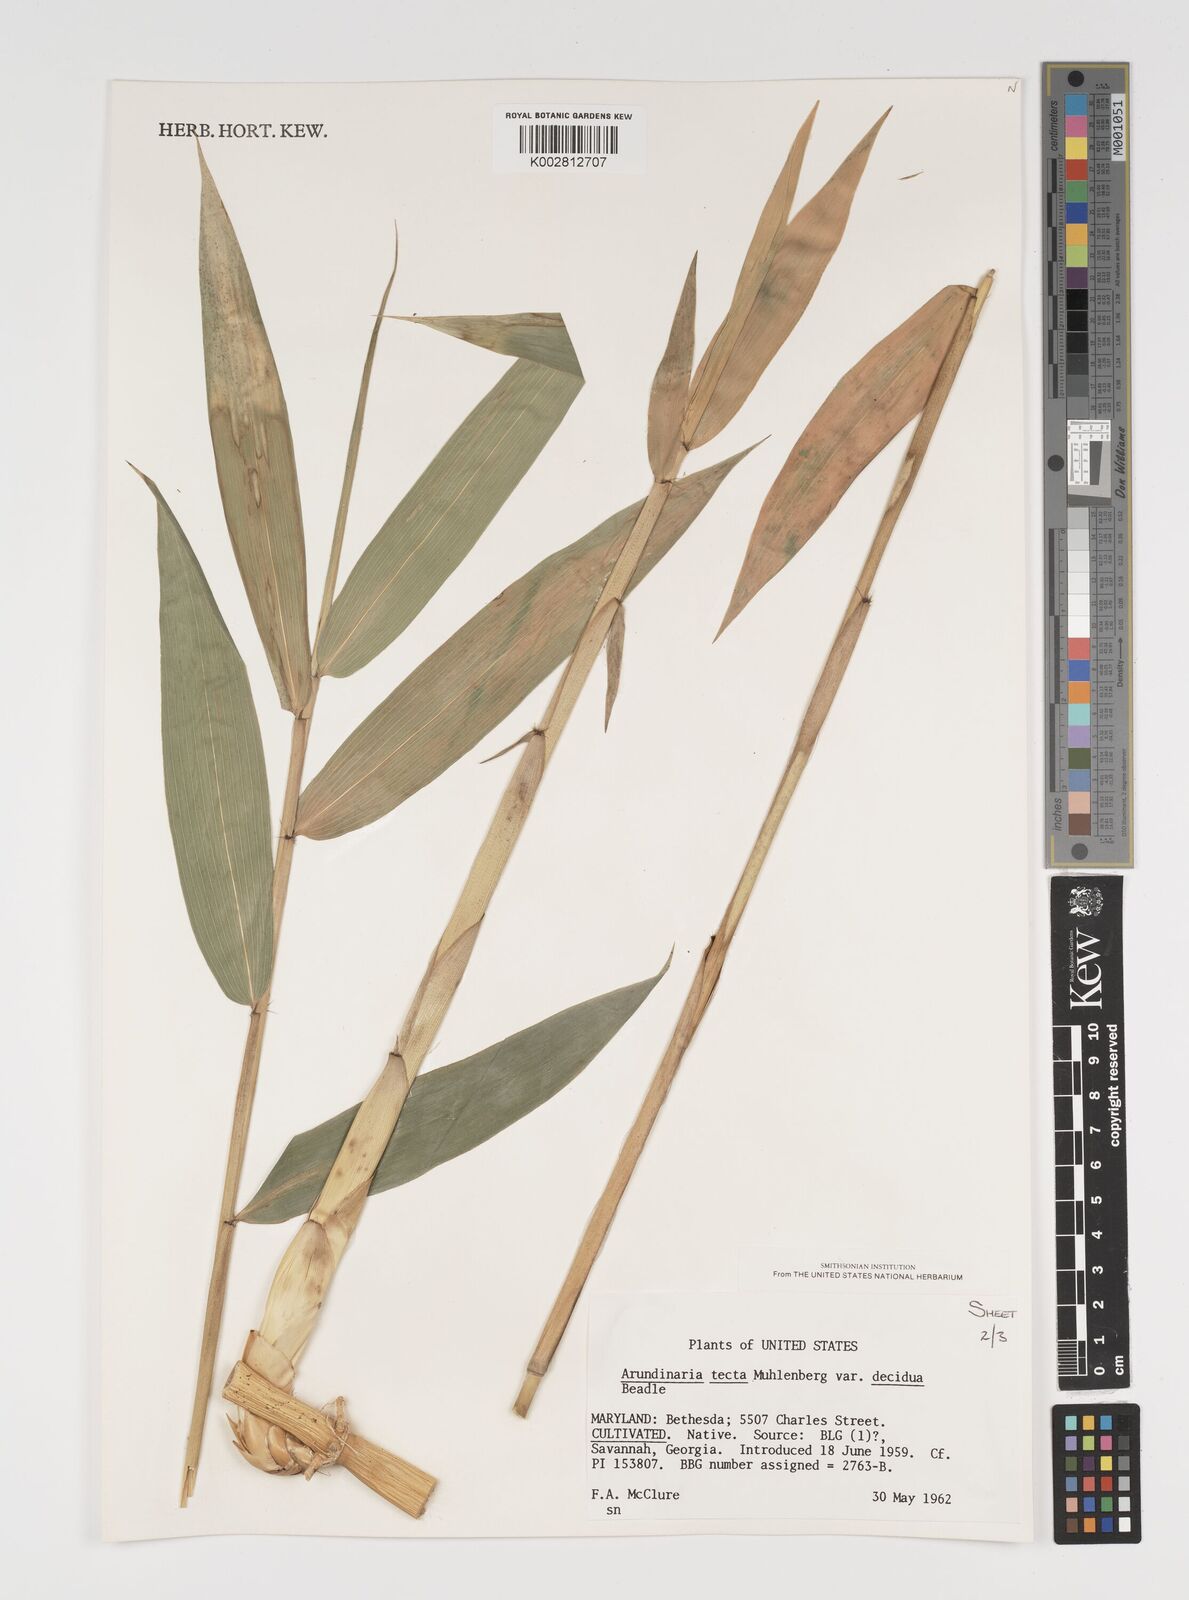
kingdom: Plantae
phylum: Tracheophyta
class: Liliopsida
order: Poales
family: Poaceae
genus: Arundinaria
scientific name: Arundinaria tecta
